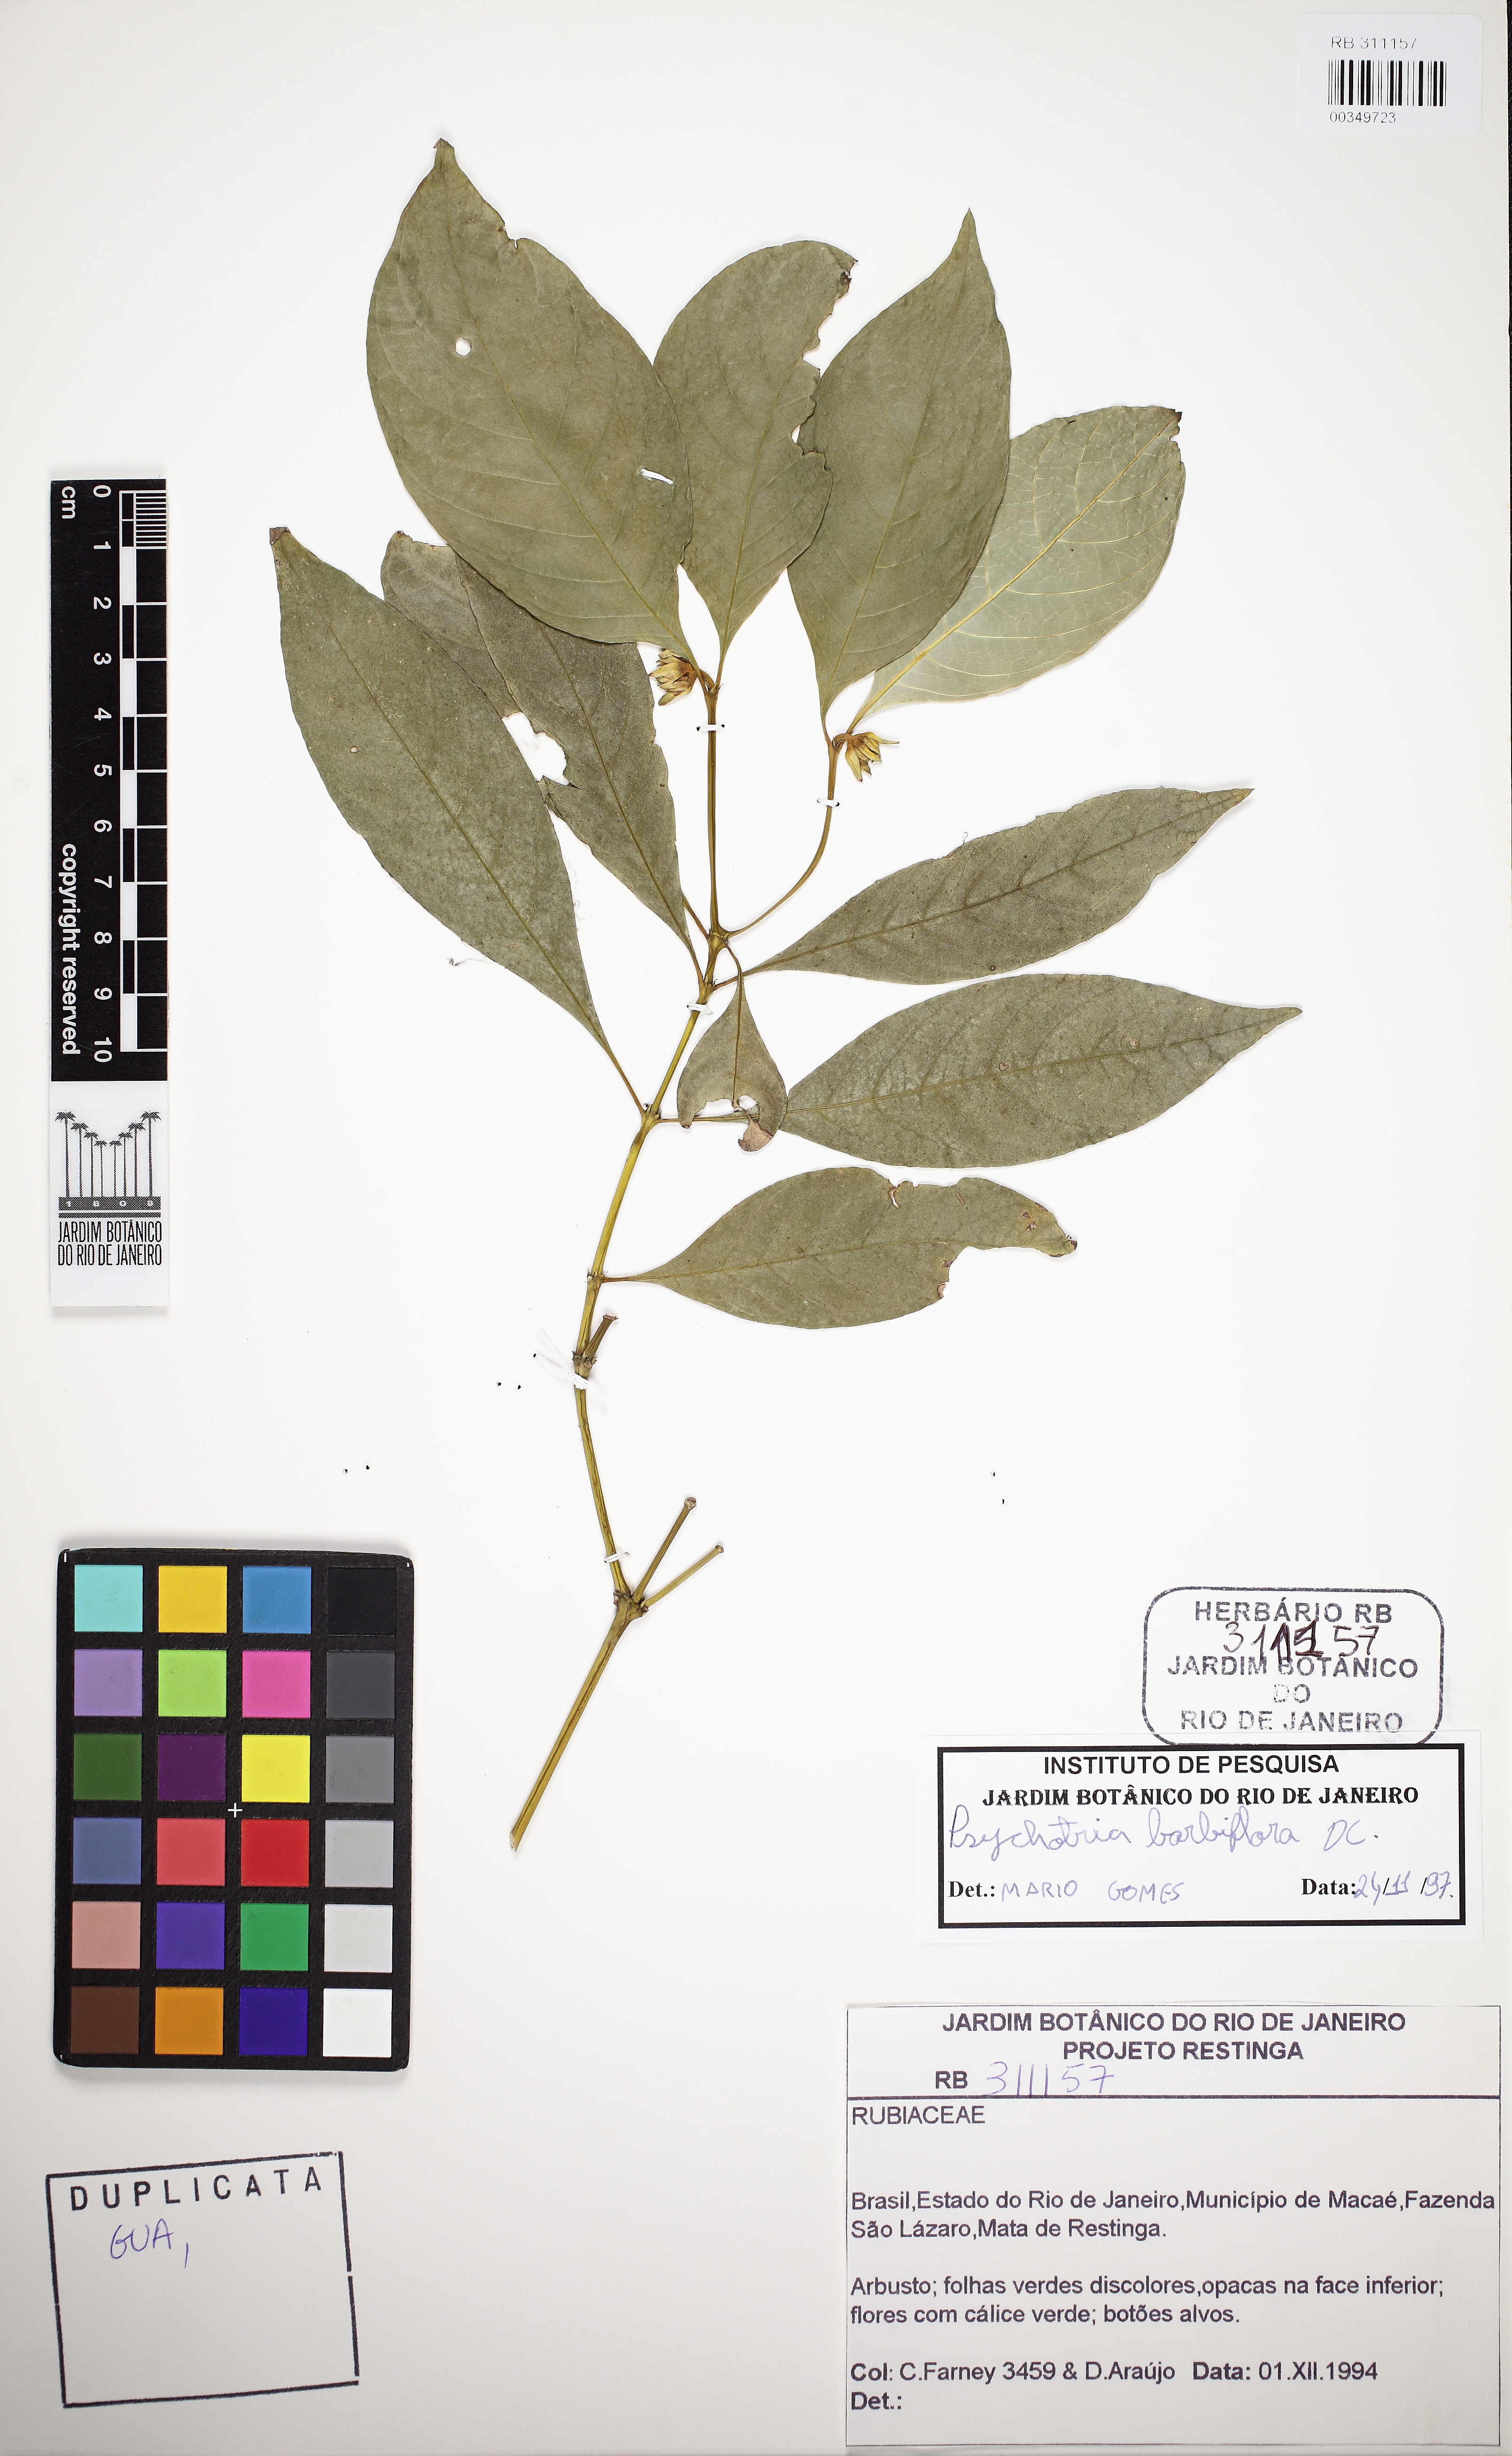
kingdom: Plantae
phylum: Tracheophyta
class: Magnoliopsida
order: Gentianales
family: Rubiaceae
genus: Palicourea
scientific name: Palicourea hoffmannseggiana
